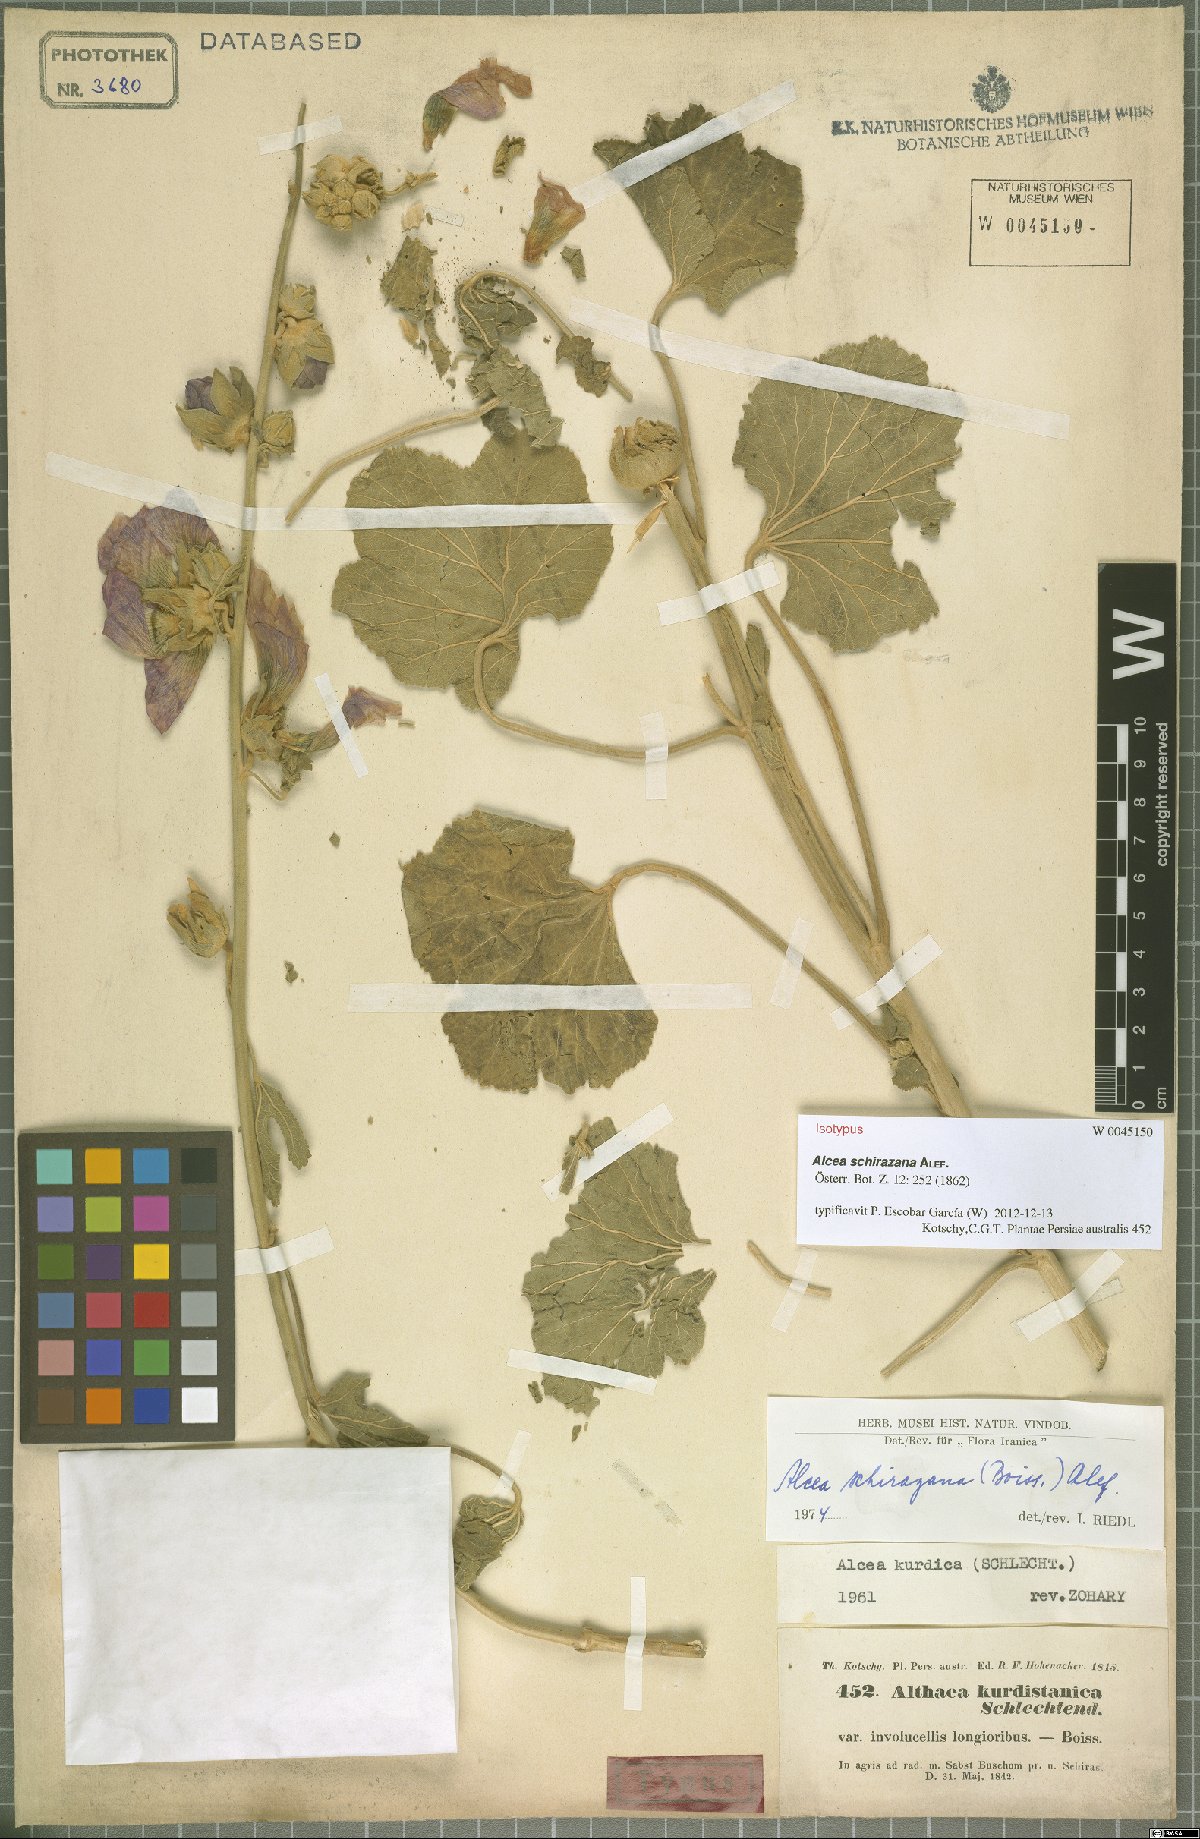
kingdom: Plantae
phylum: Tracheophyta
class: Magnoliopsida
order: Malvales
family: Malvaceae
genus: Alcea
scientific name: Alcea schirazana
